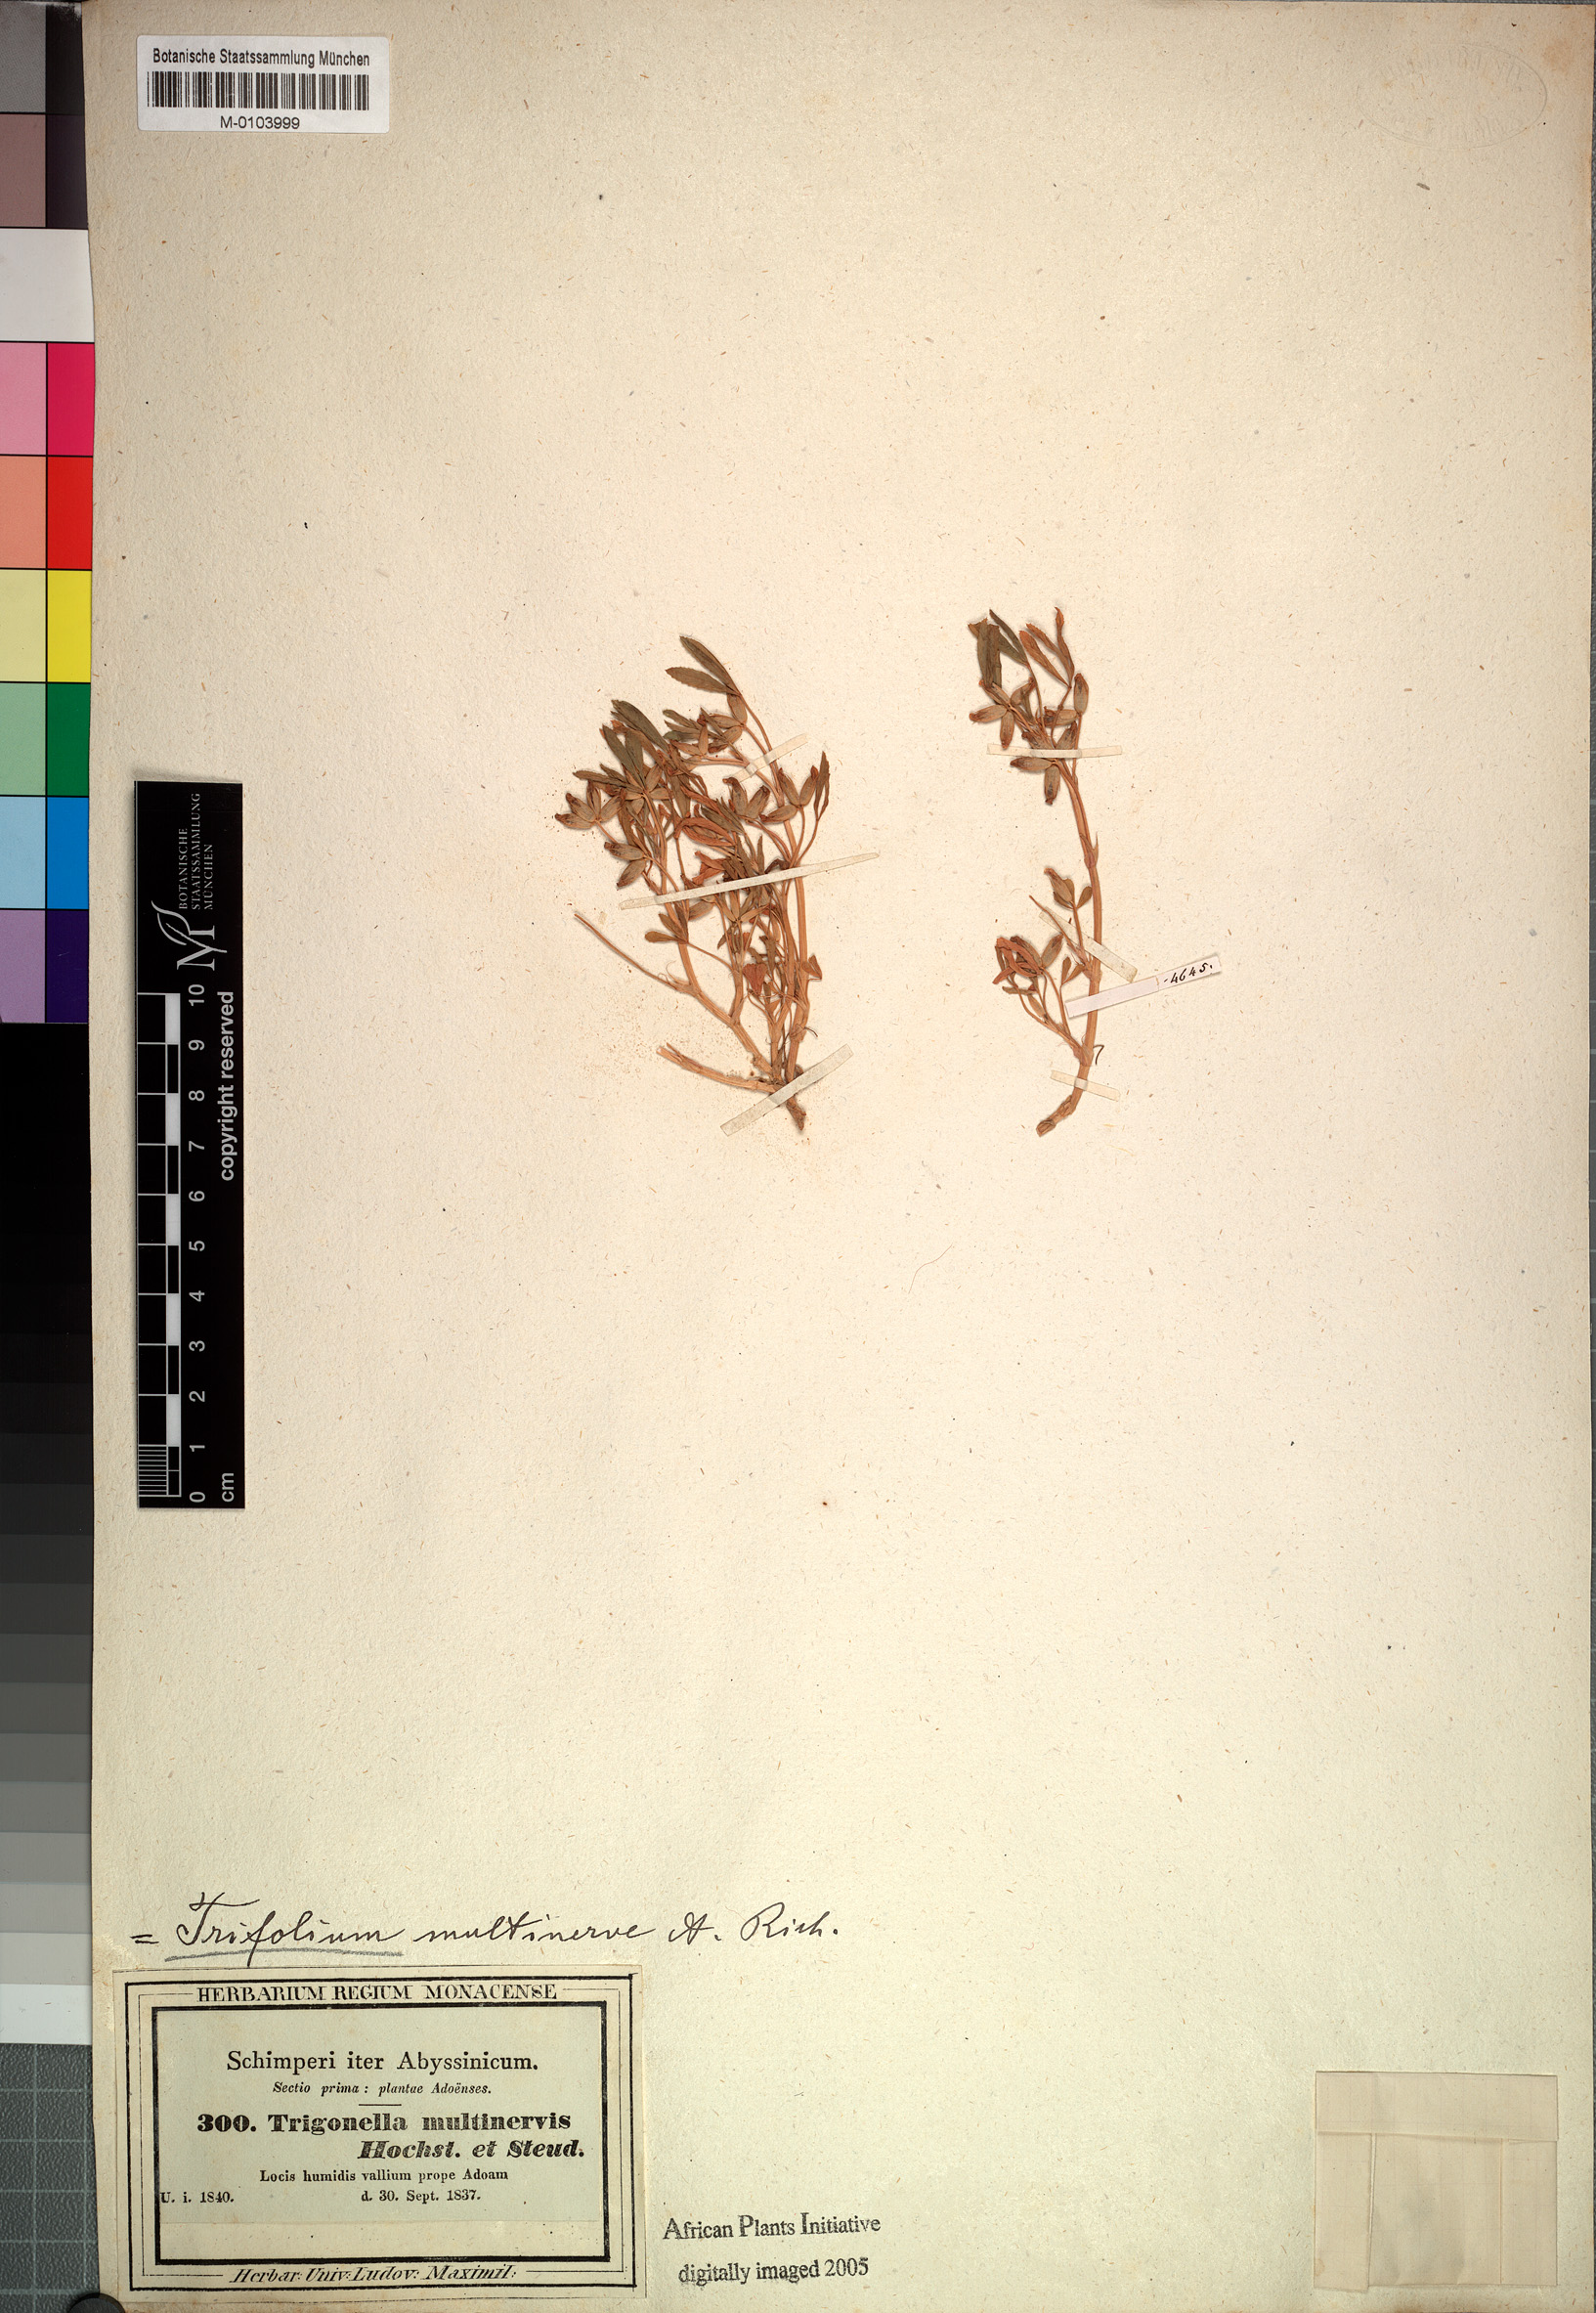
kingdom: Plantae
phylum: Tracheophyta
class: Magnoliopsida
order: Fabales
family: Fabaceae
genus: Trifolium
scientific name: Trifolium multinerve
